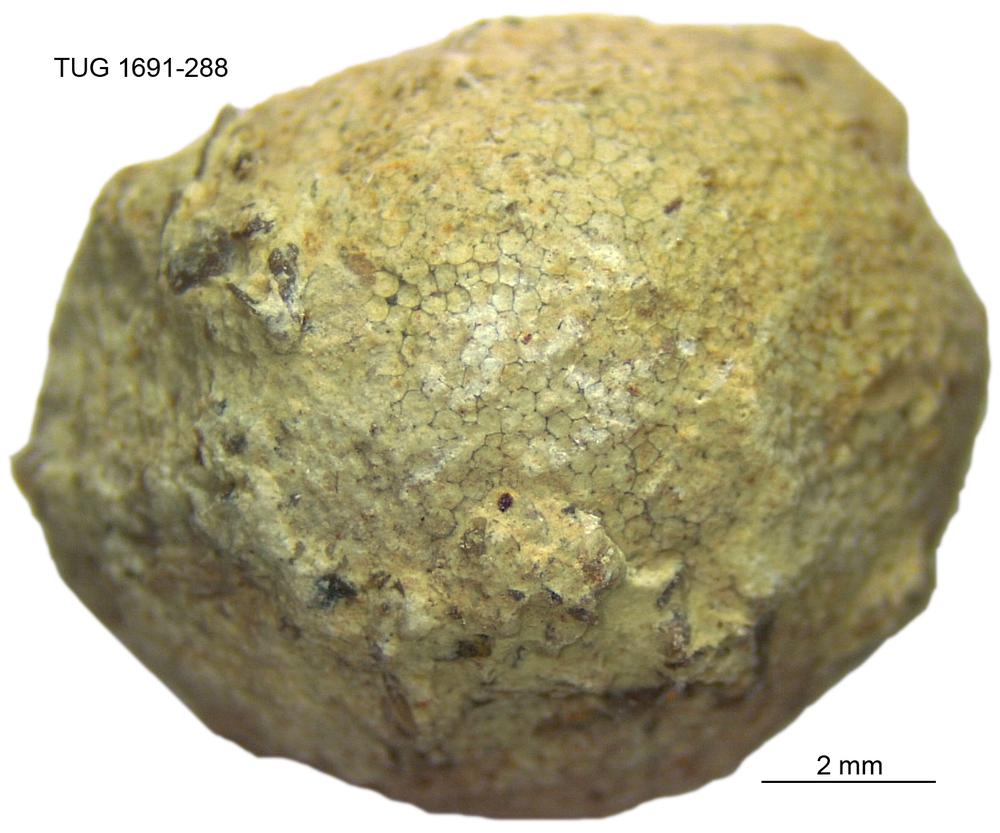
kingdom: Animalia
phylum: Bryozoa
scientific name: Bryozoa
